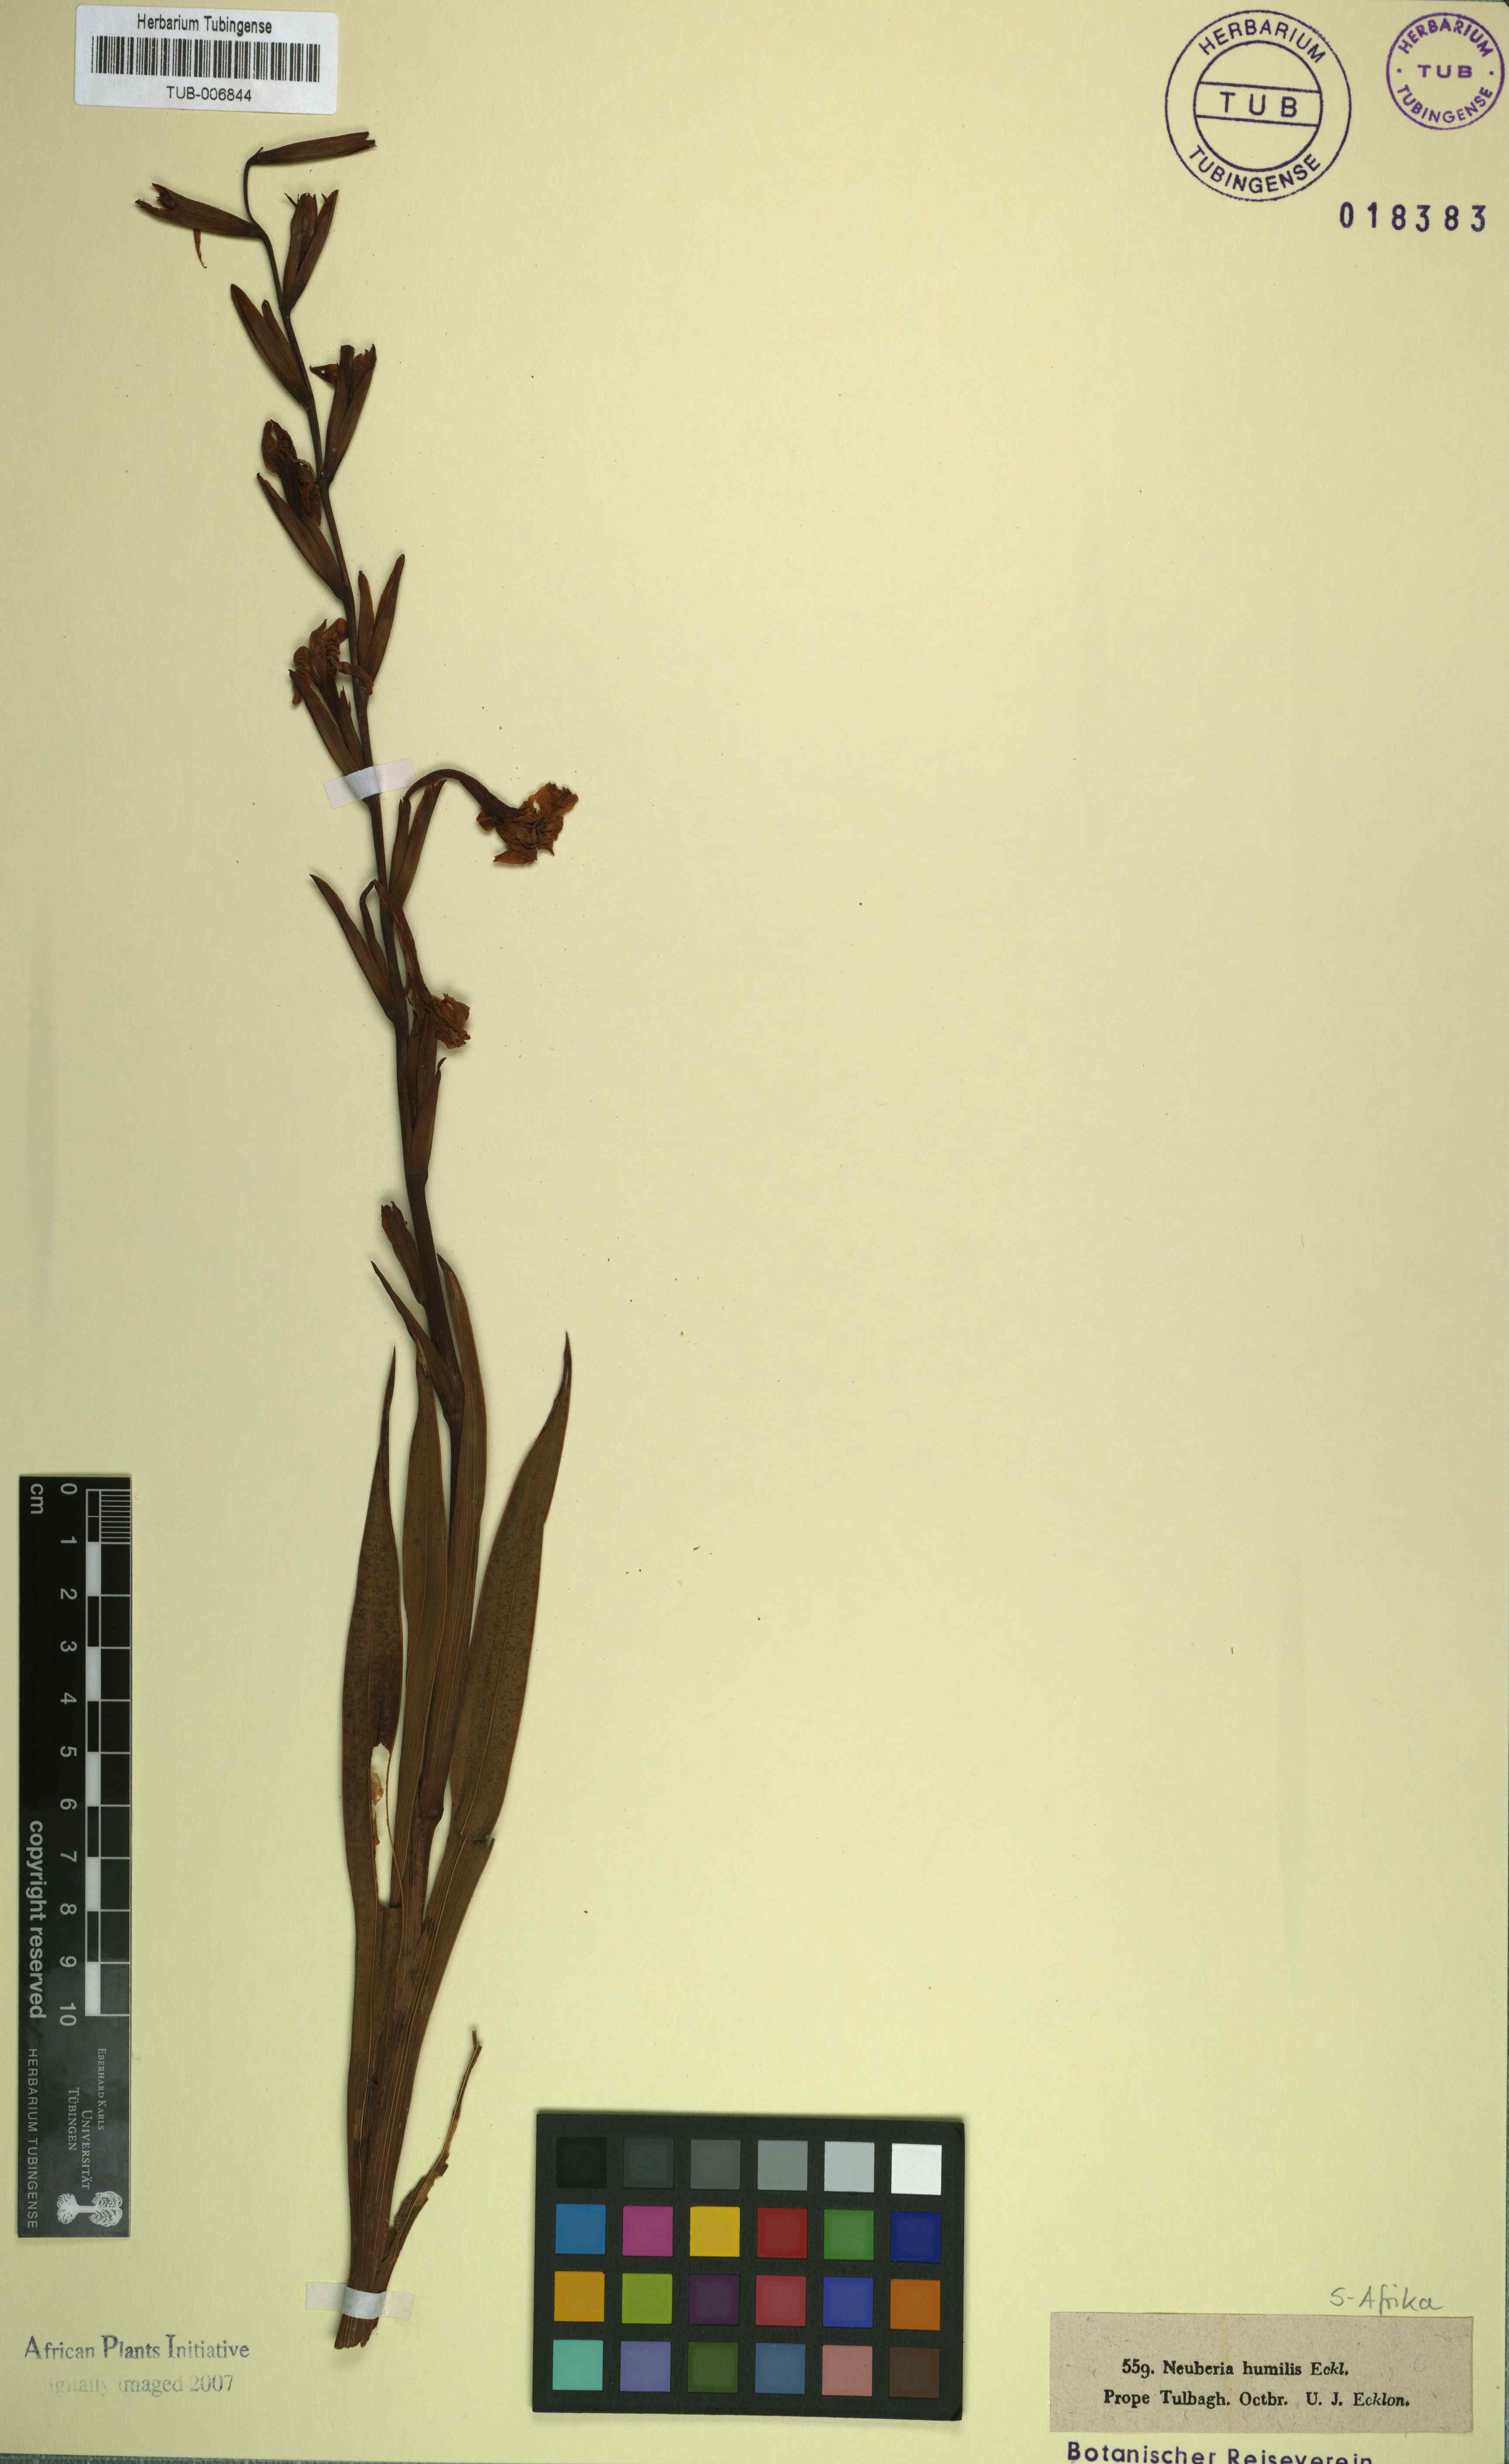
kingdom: Plantae
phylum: Tracheophyta
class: Liliopsida
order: Asparagales
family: Iridaceae
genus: Watsonia
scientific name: Watsonia humilis
